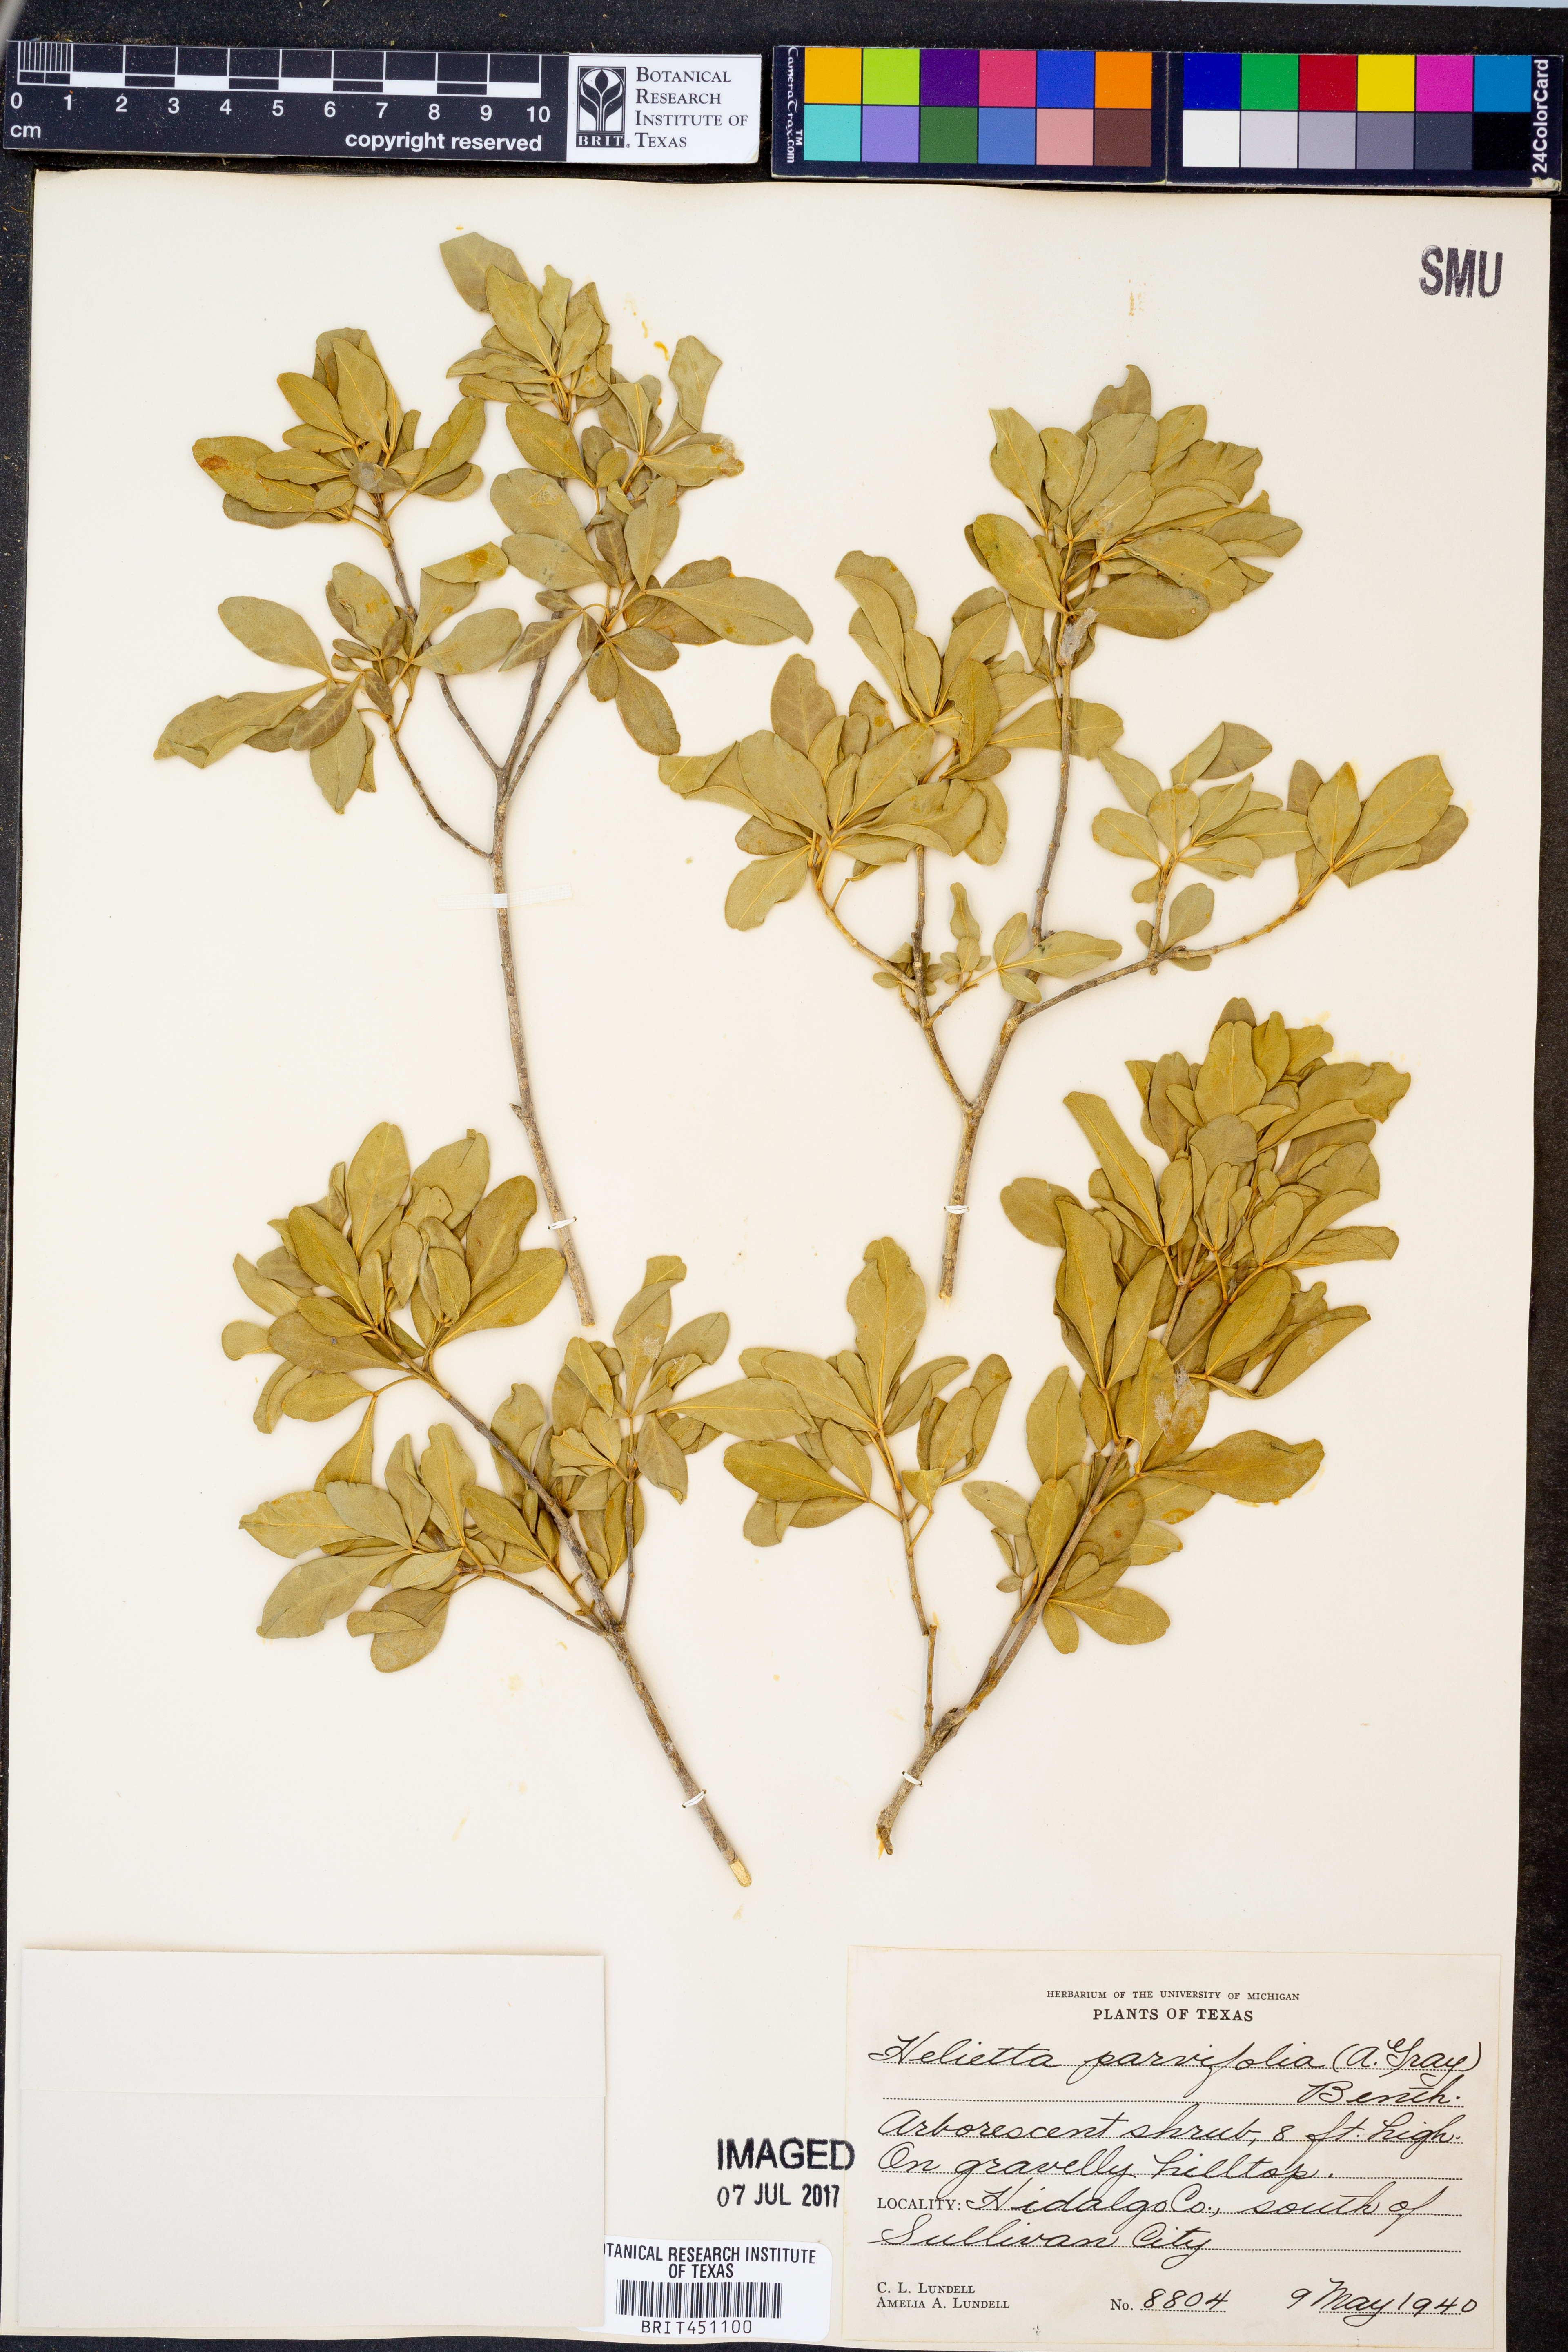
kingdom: Plantae
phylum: Tracheophyta
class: Magnoliopsida
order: Sapindales
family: Rutaceae
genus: Helietta
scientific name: Helietta parvifolia
